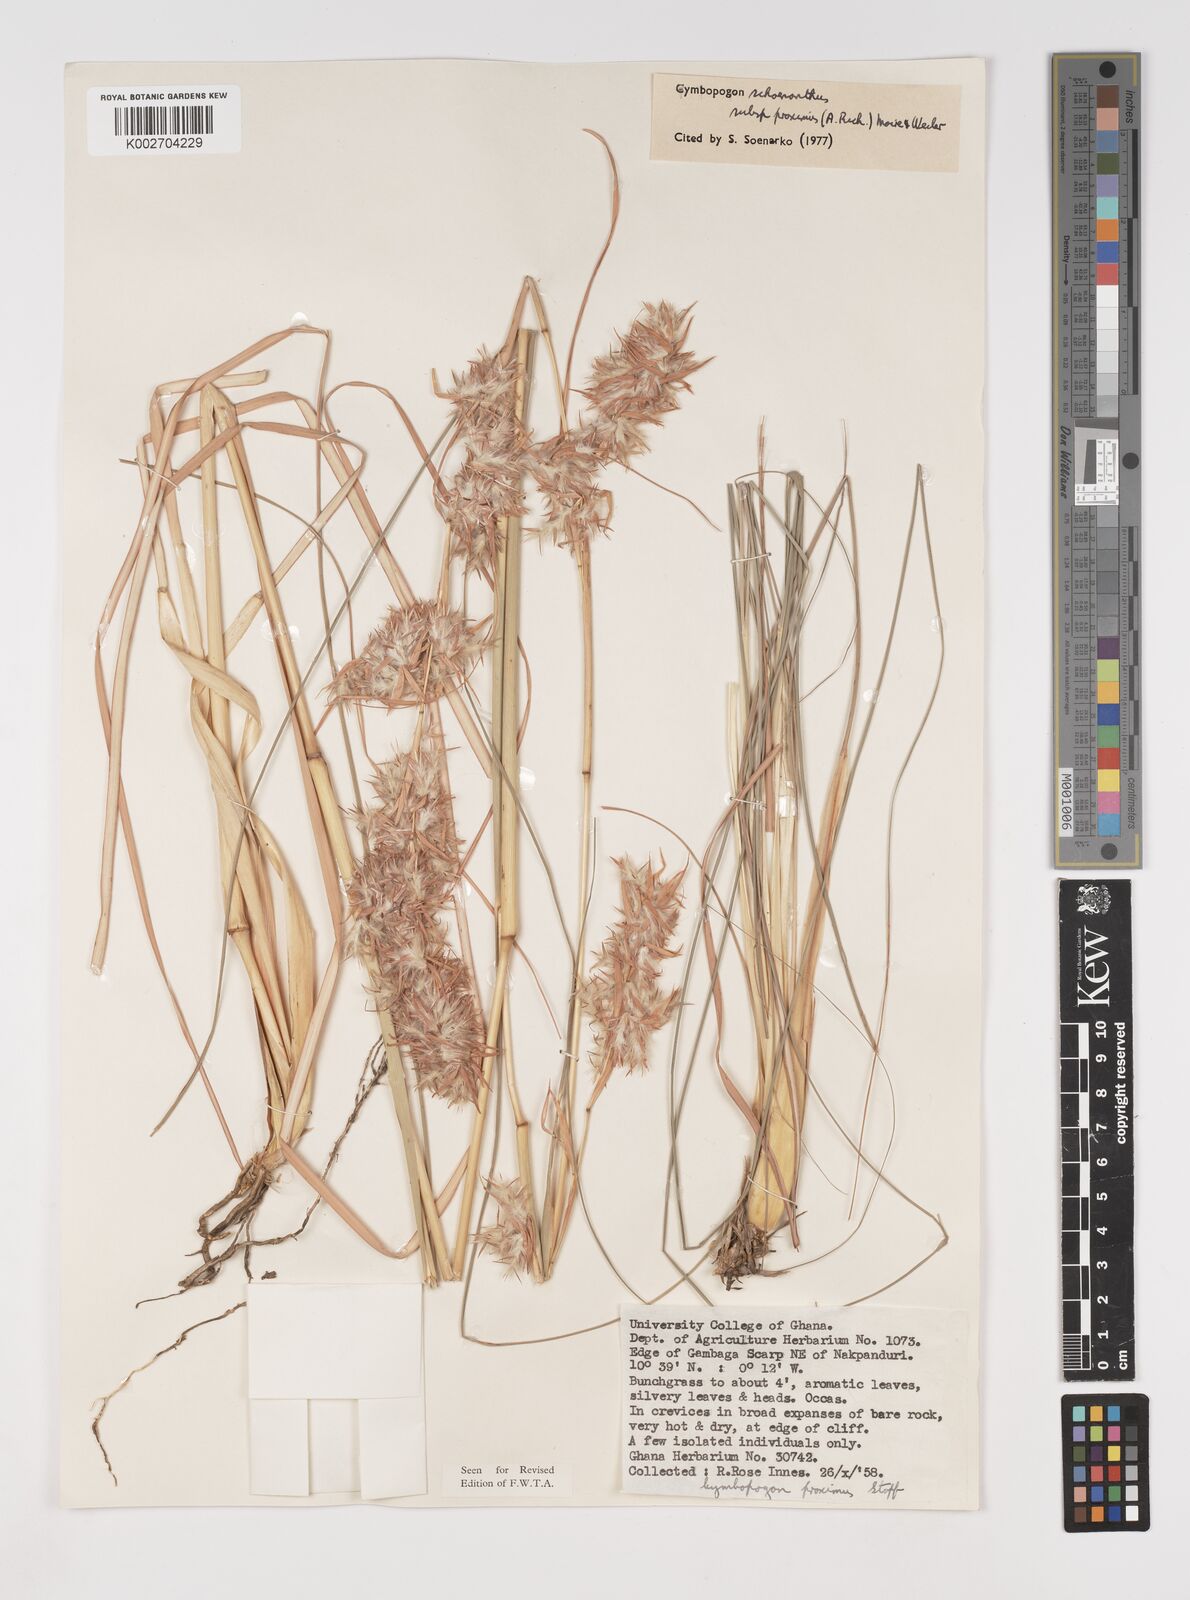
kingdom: Plantae
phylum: Tracheophyta
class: Liliopsida
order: Poales
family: Poaceae
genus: Cymbopogon
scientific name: Cymbopogon schoenanthus
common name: Geranium grass
